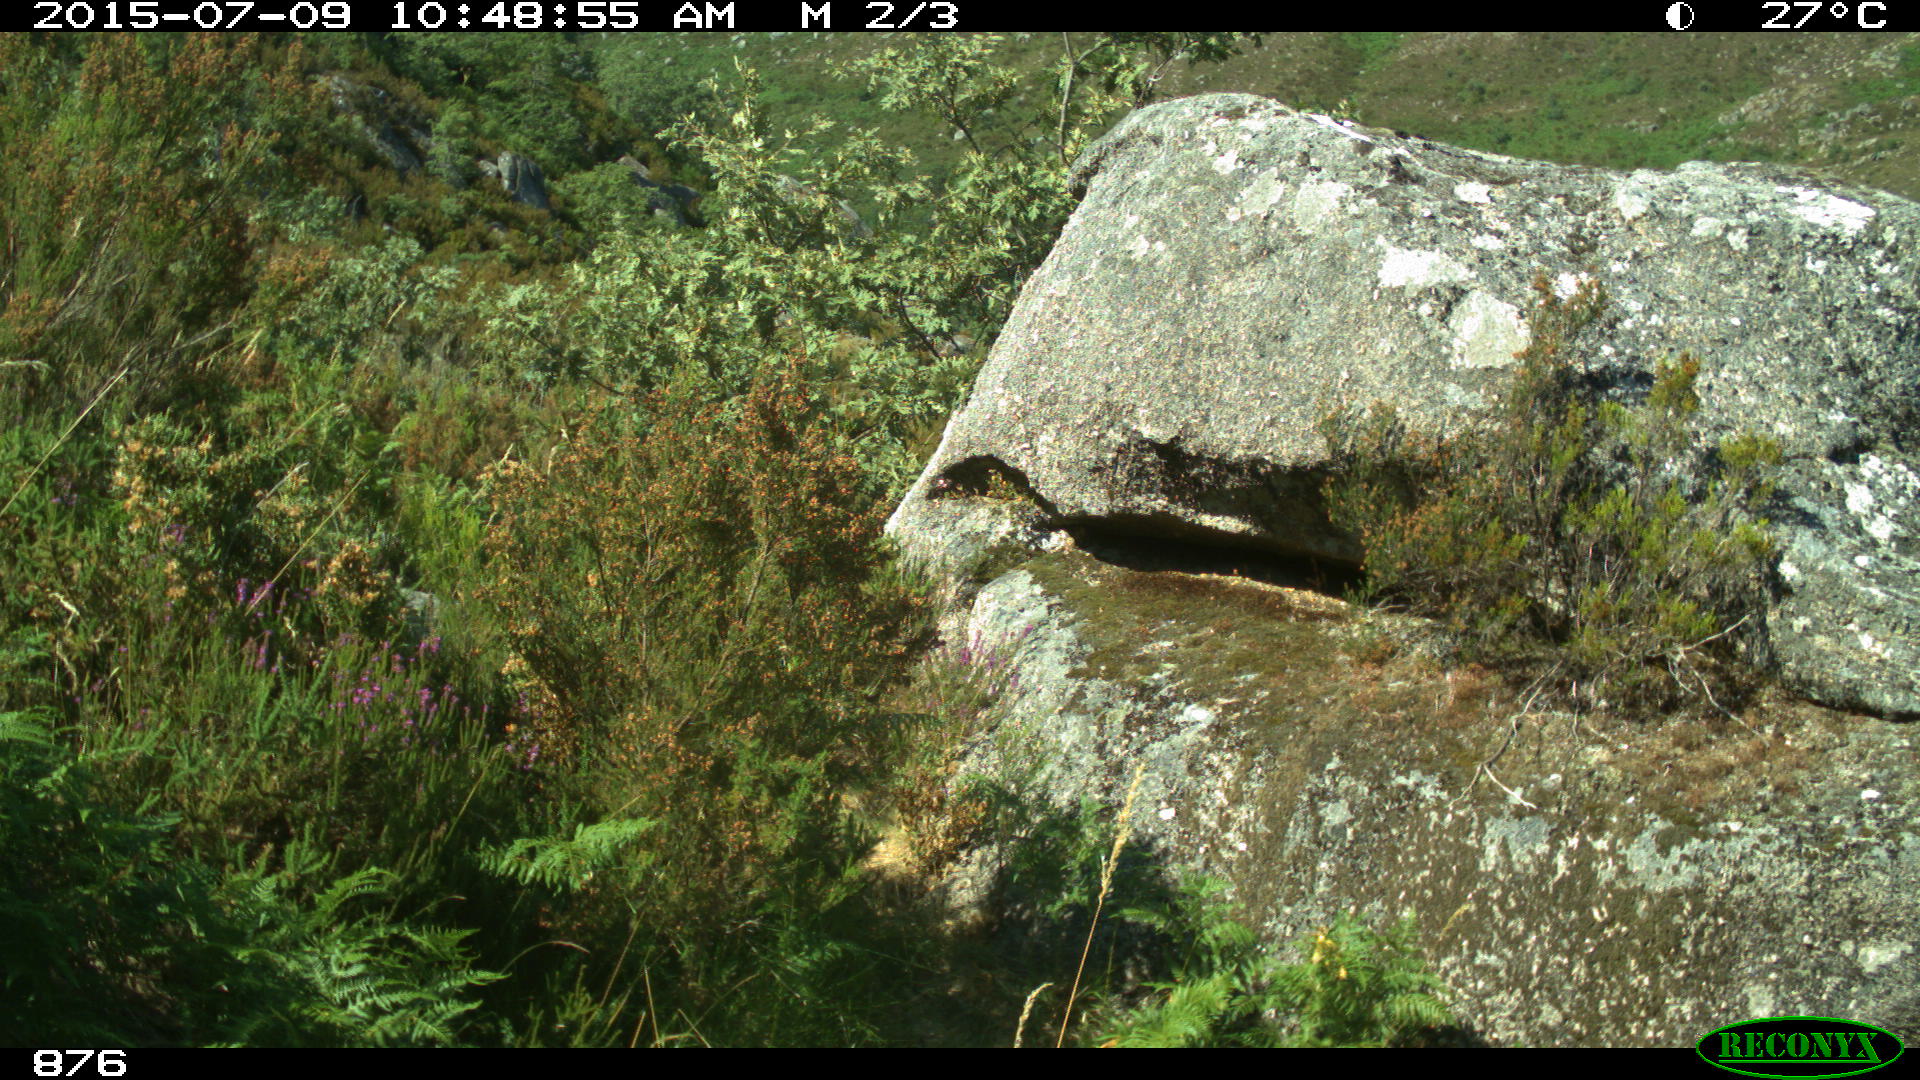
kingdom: Animalia
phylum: Chordata
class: Aves
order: Passeriformes
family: Corvidae
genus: Garrulus
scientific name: Garrulus glandarius
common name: Eurasian jay
